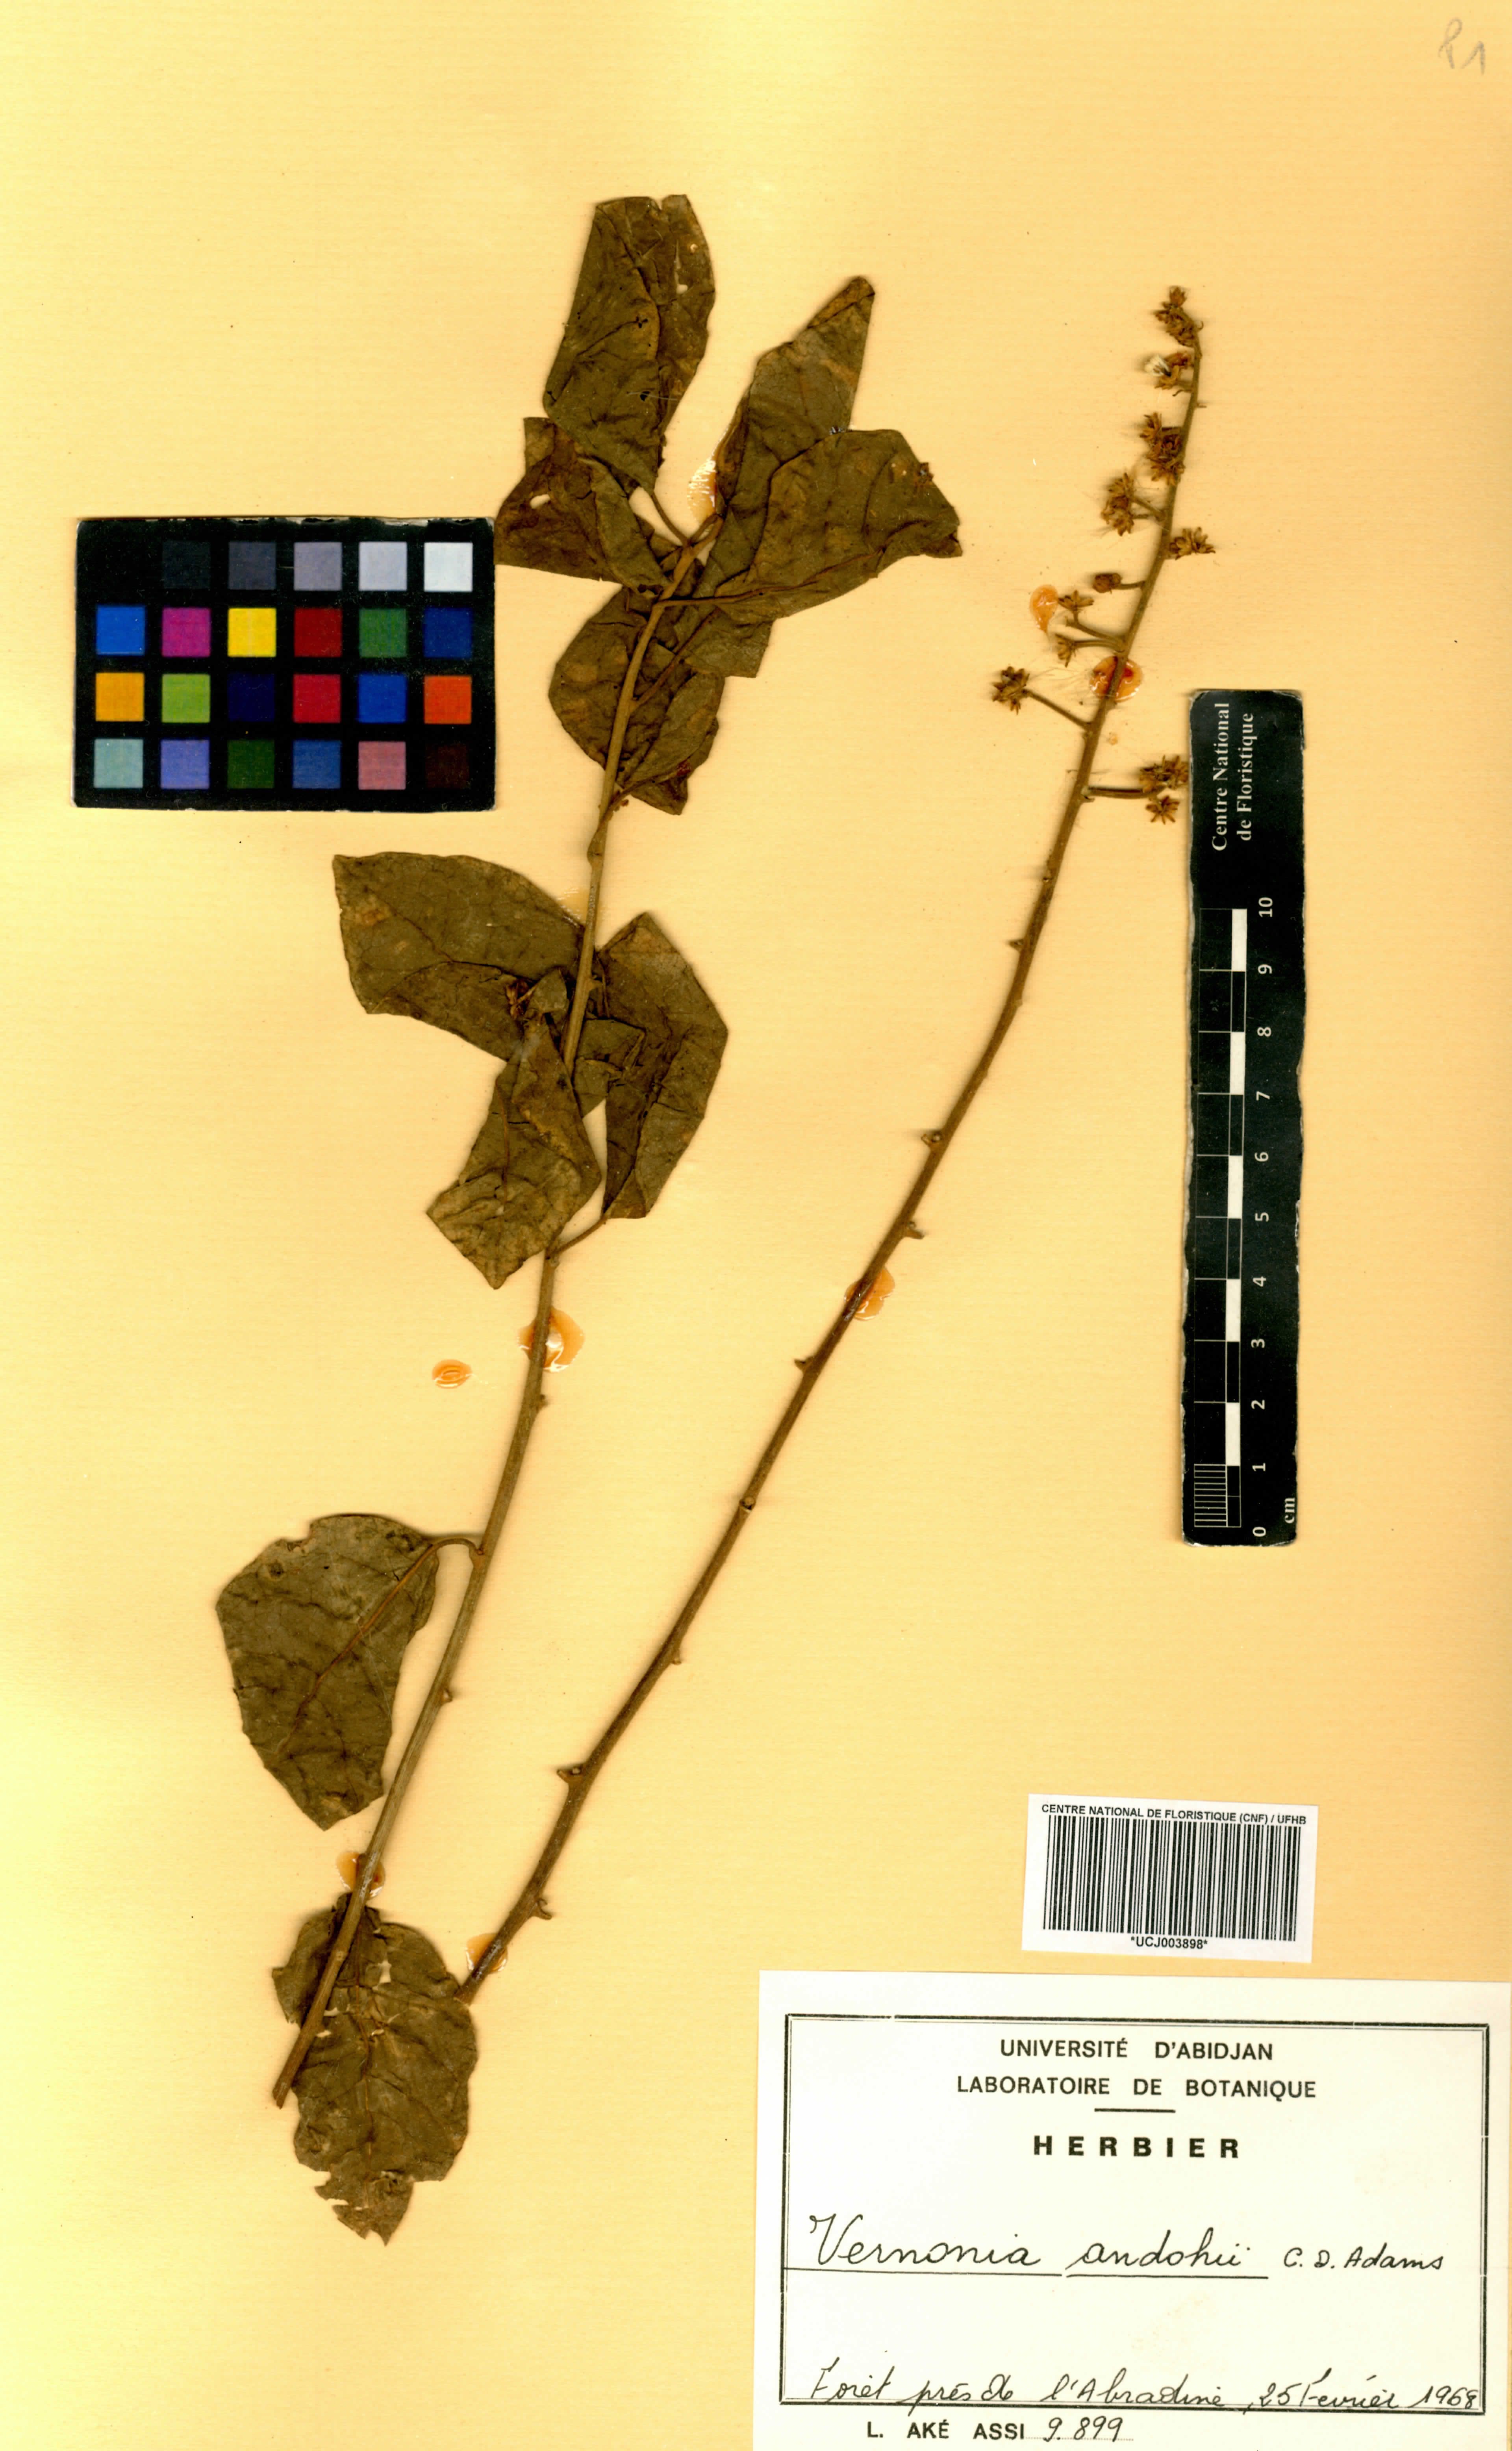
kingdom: Plantae
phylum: Tracheophyta
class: Magnoliopsida
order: Asterales
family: Asteraceae
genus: Brenandendron
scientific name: Brenandendron donianum
